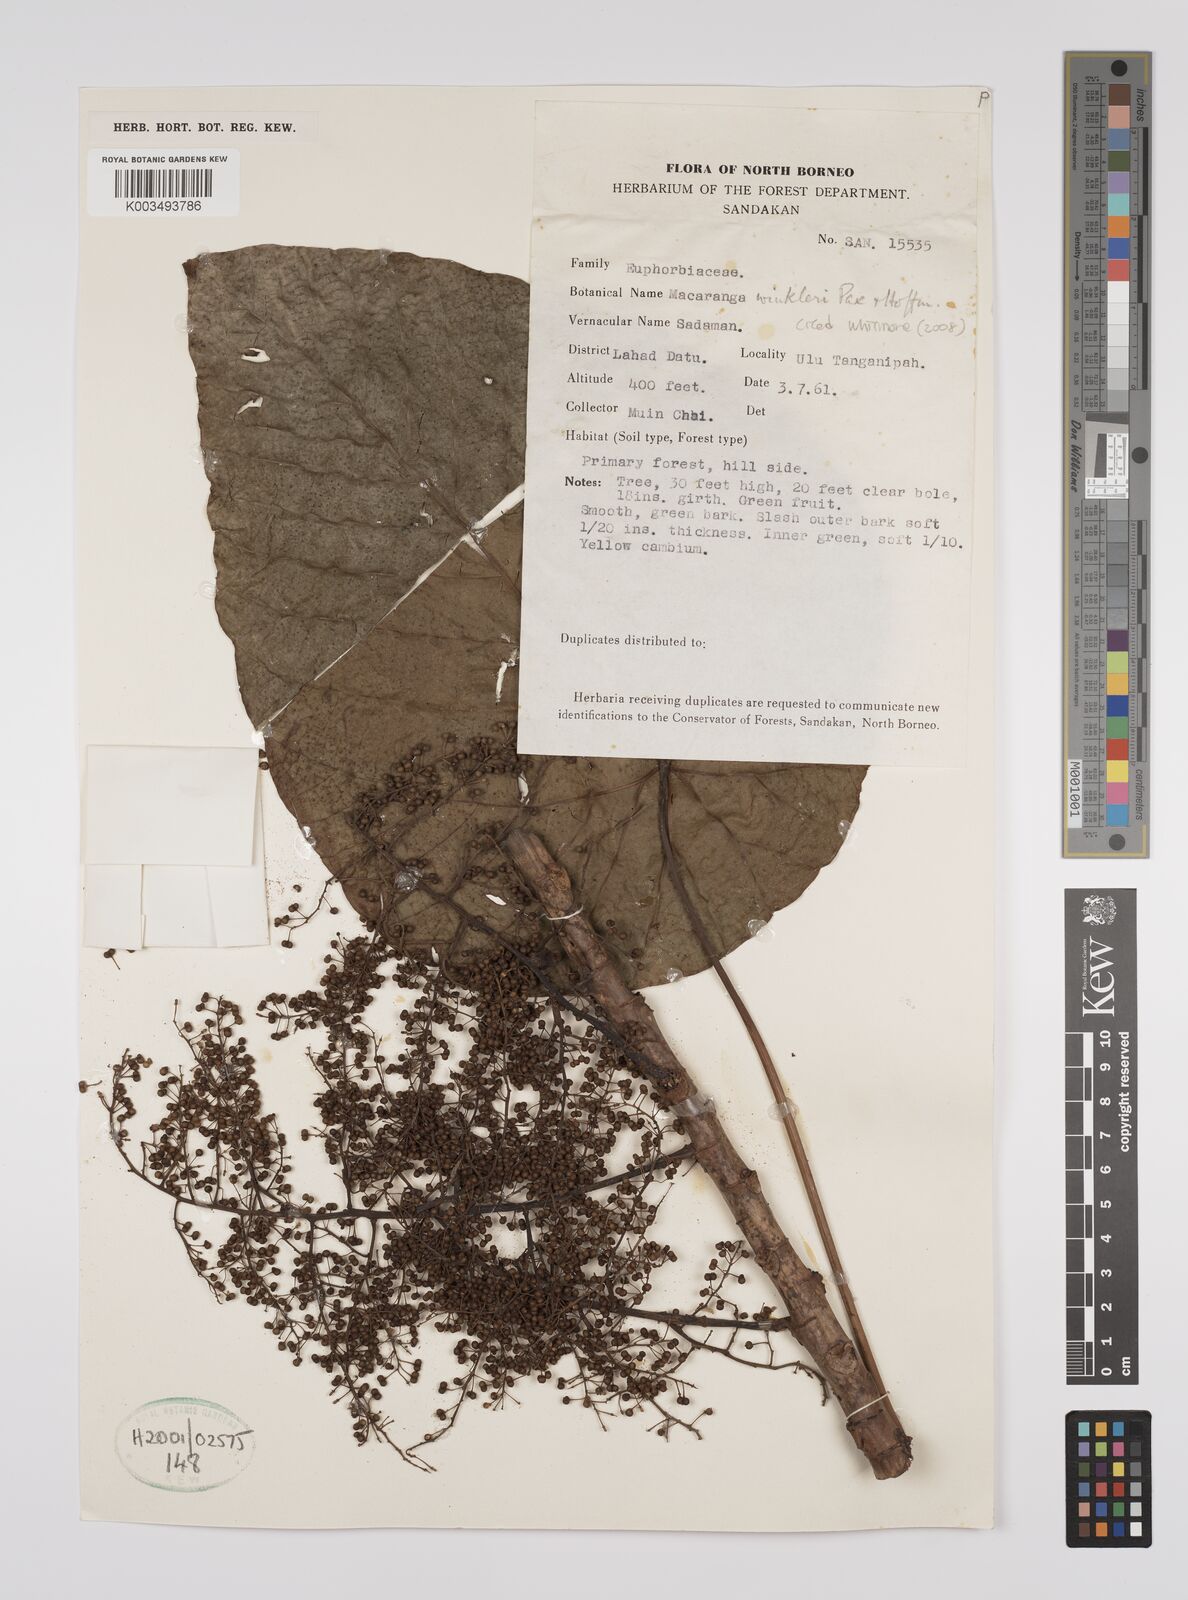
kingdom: Plantae
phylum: Tracheophyta
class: Magnoliopsida
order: Malpighiales
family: Euphorbiaceae
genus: Macaranga
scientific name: Macaranga winkleri
